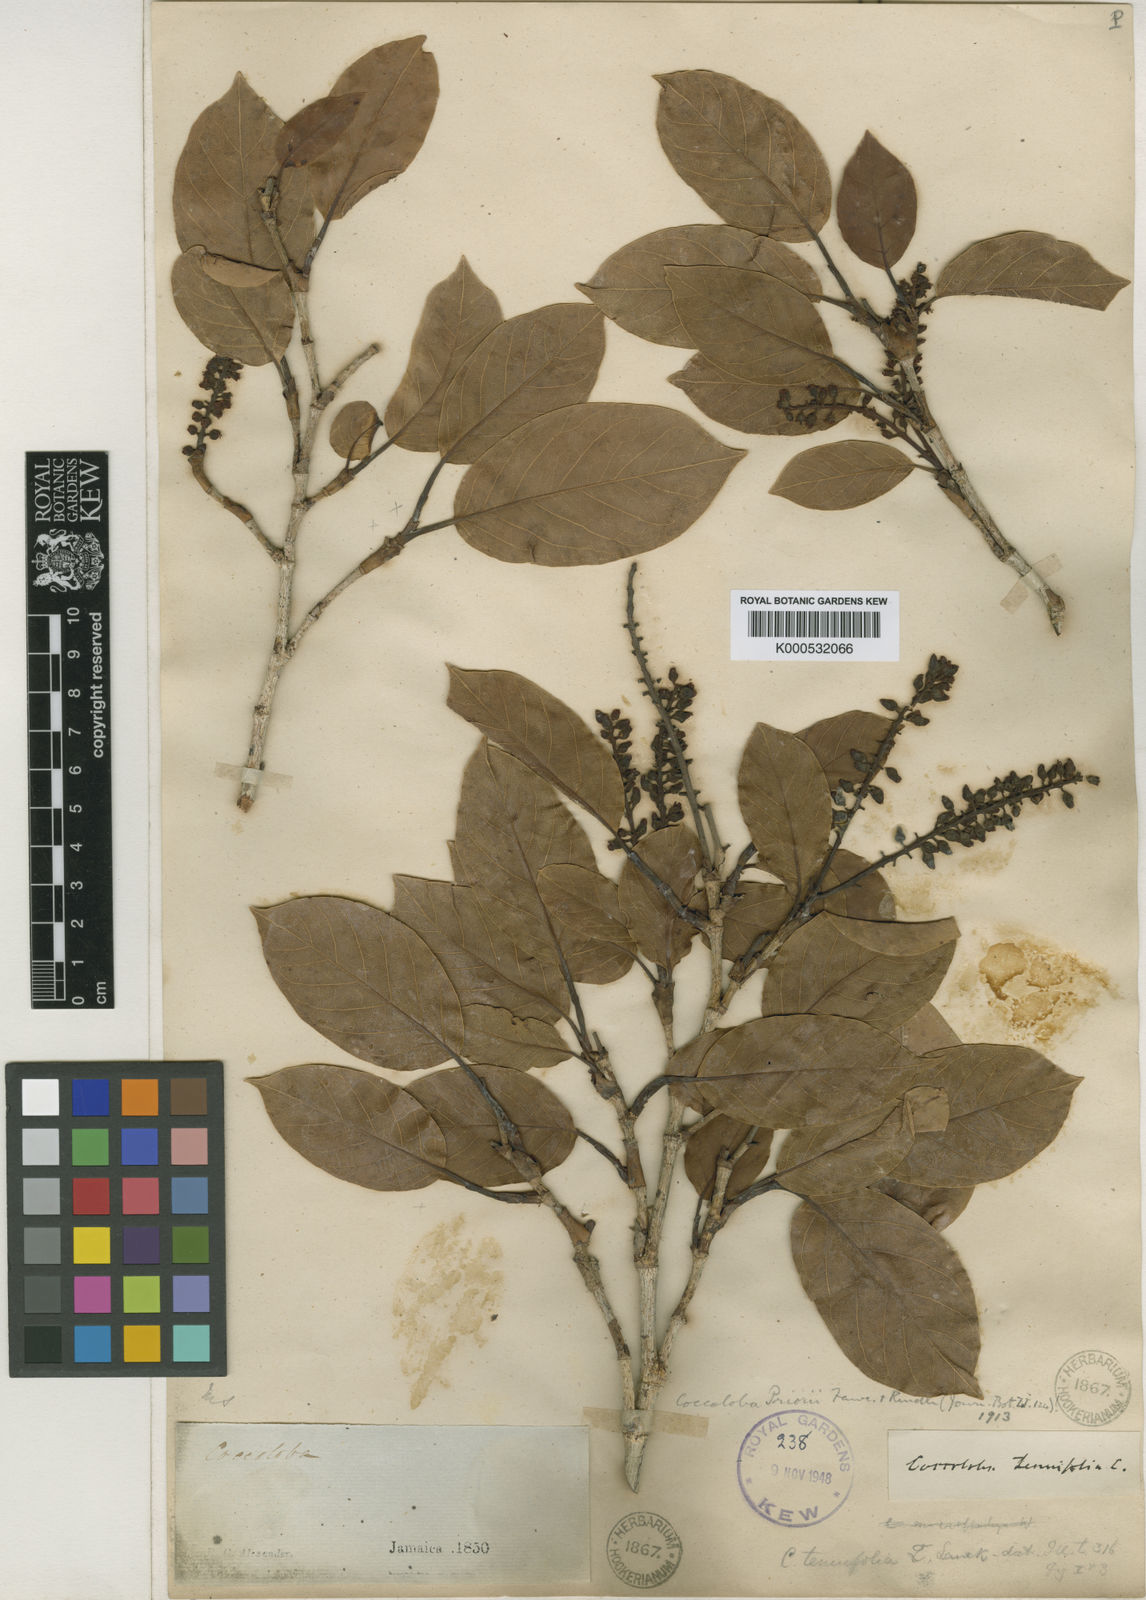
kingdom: Plantae
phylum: Tracheophyta
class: Magnoliopsida
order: Caryophyllales
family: Polygonaceae
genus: Coccoloba
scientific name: Coccoloba zebra
